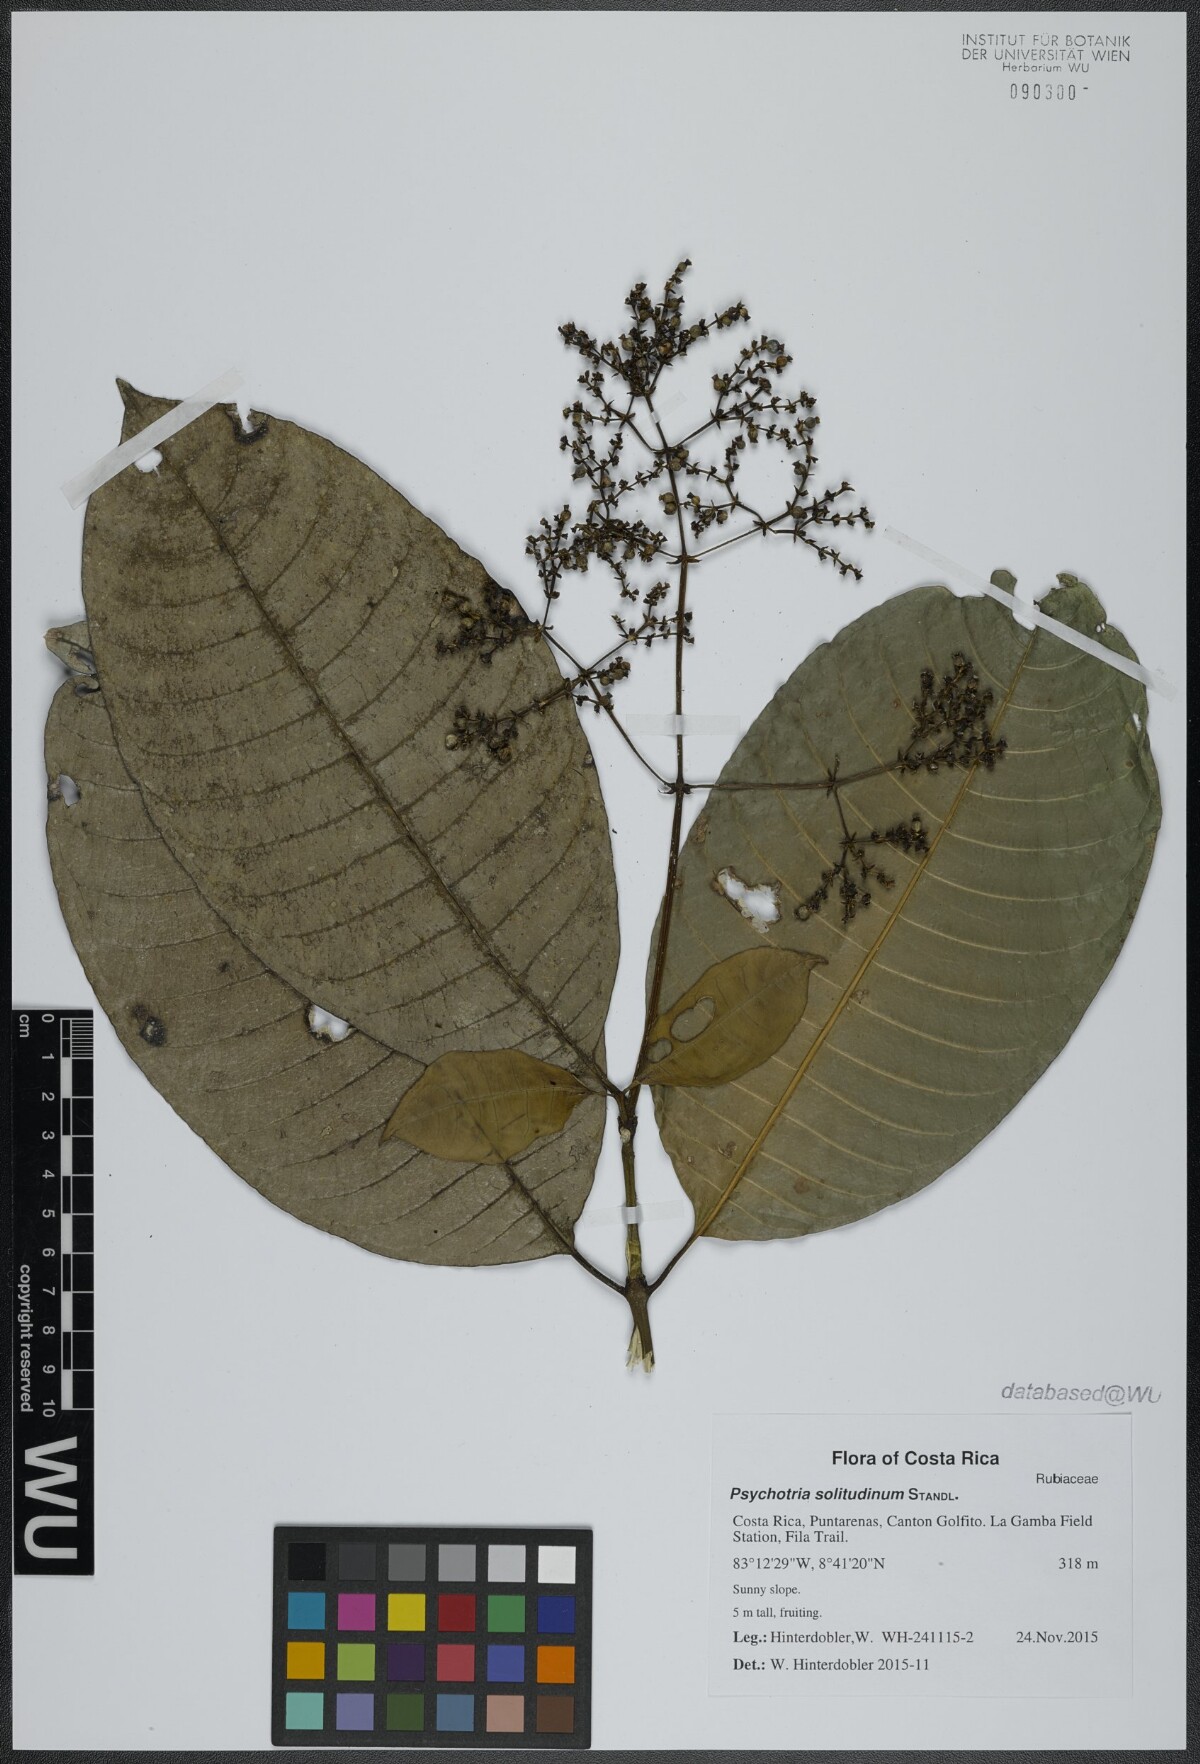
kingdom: Plantae
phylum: Tracheophyta
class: Magnoliopsida
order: Gentianales
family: Rubiaceae
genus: Palicourea
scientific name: Palicourea solitudinum
